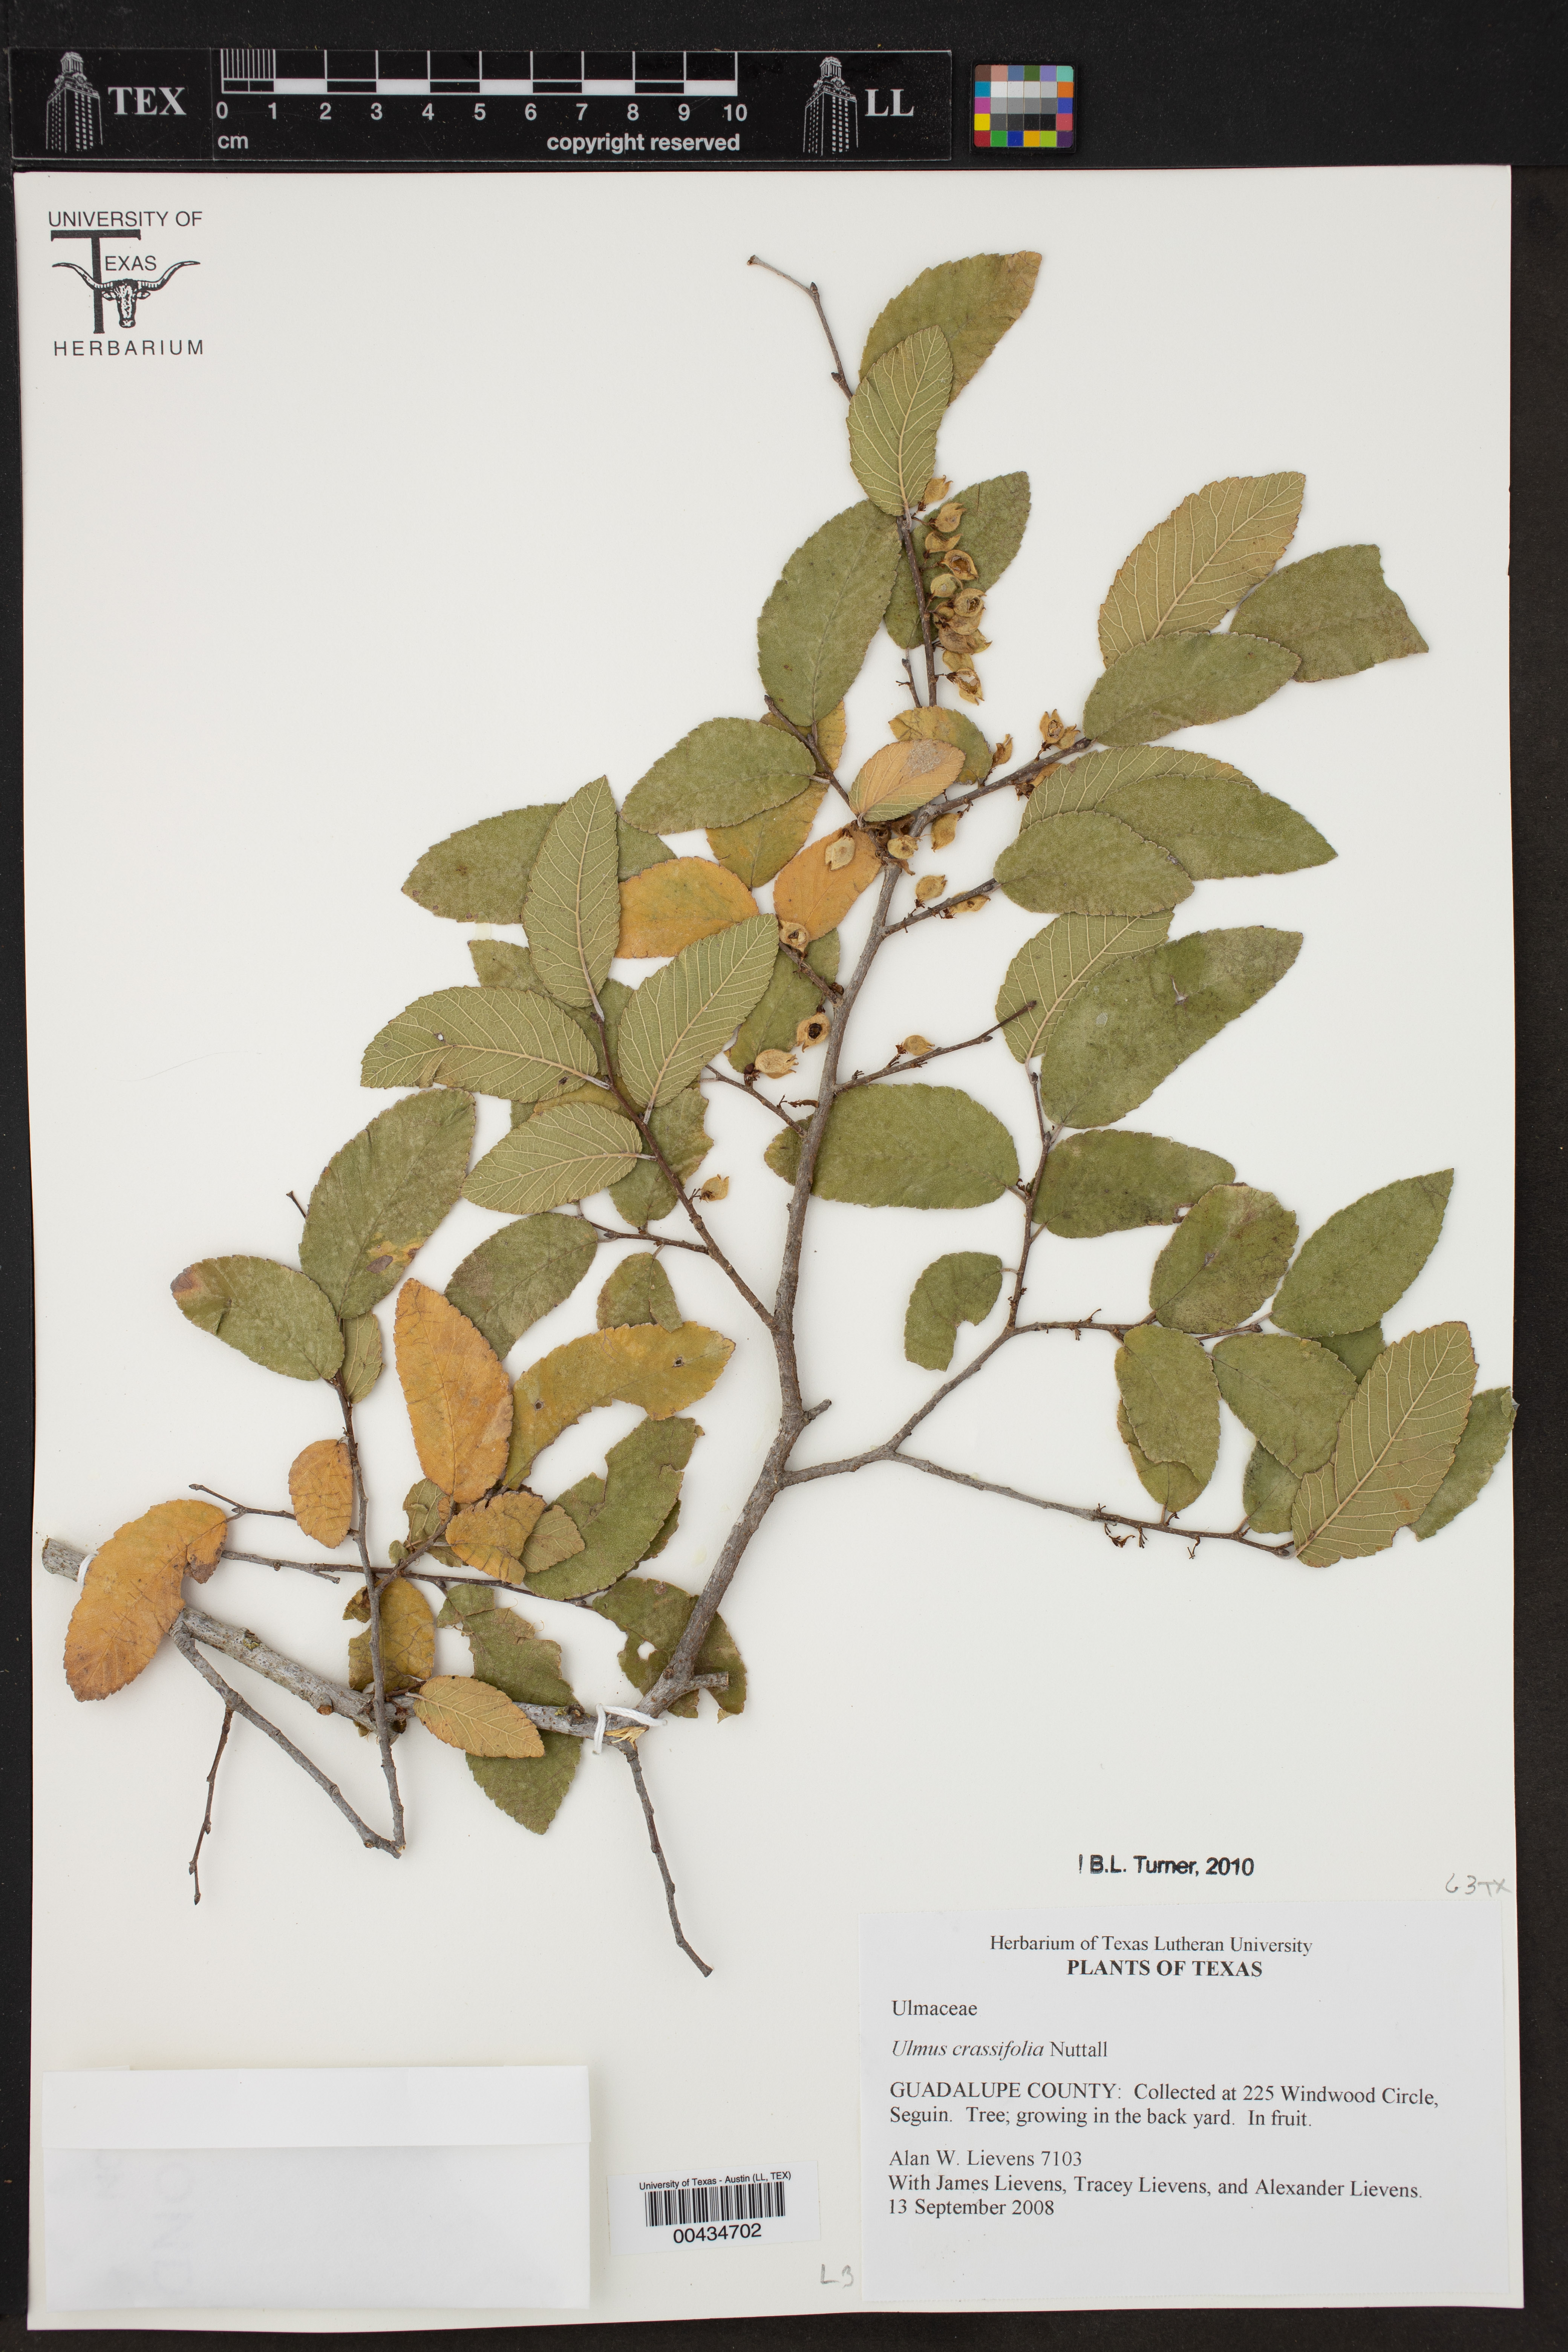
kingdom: Plantae
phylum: Tracheophyta
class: Magnoliopsida
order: Rosales
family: Ulmaceae
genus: Ulmus
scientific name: Ulmus crassifolia
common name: Basket elm
